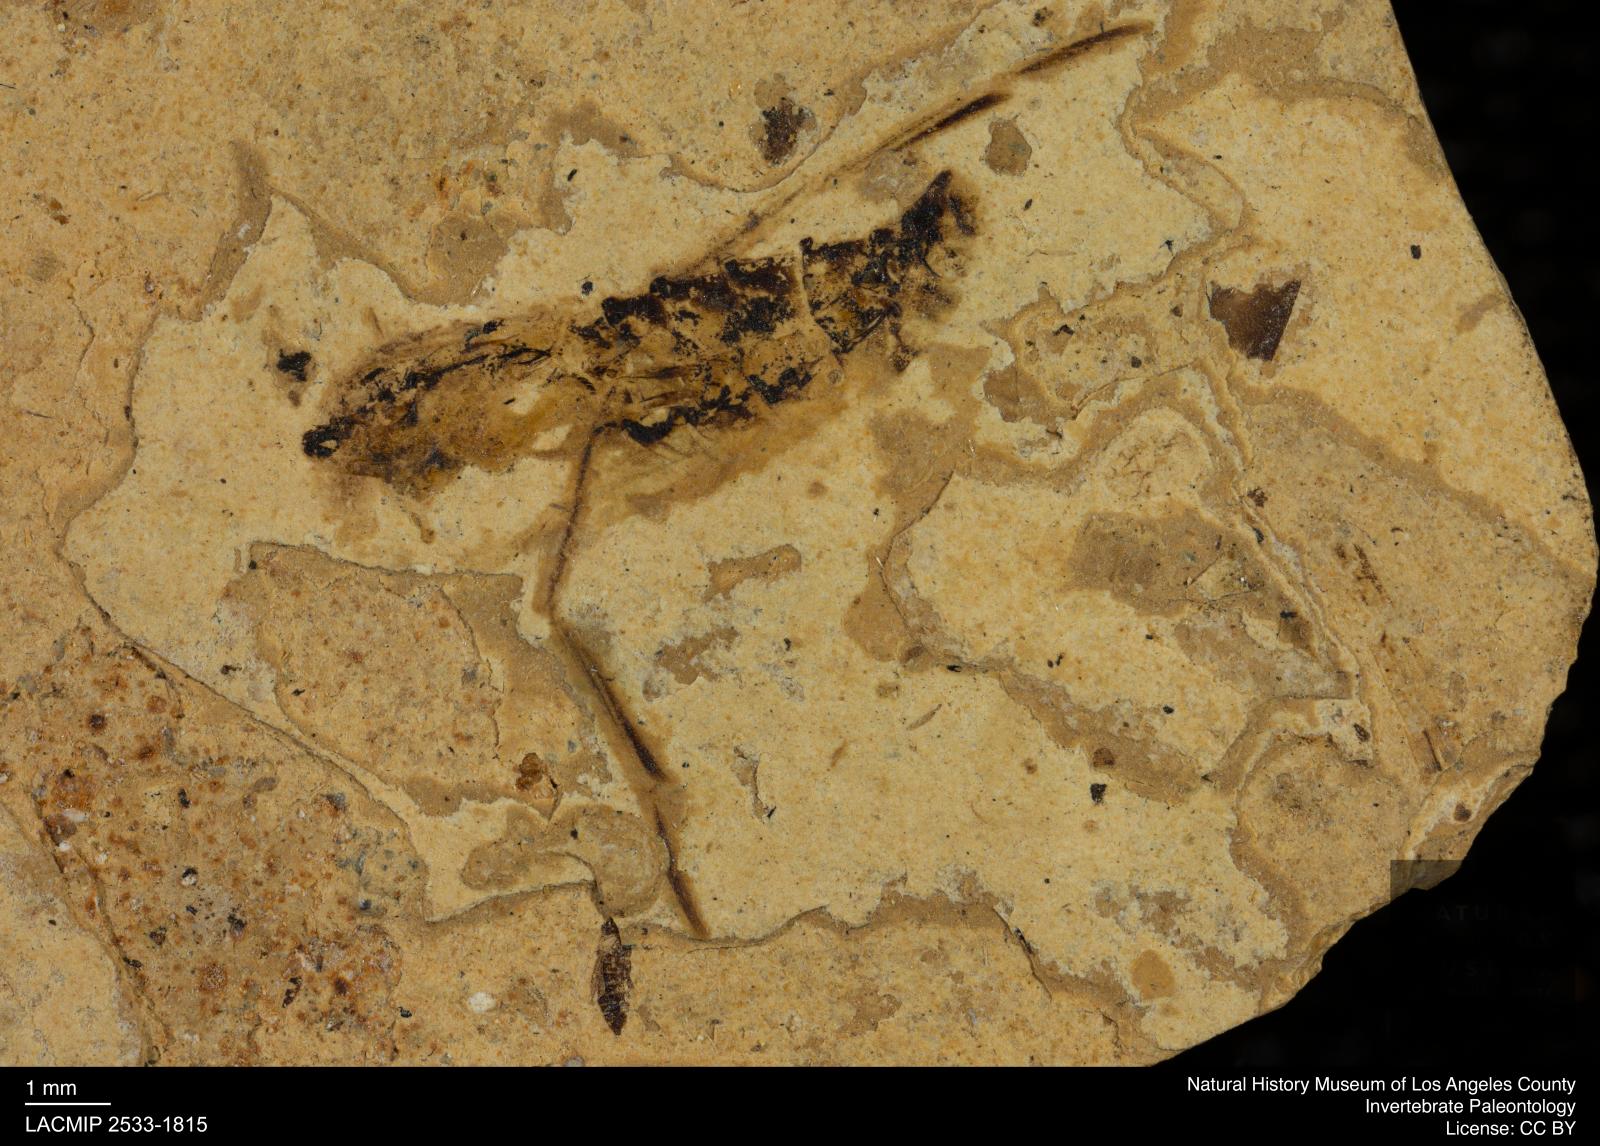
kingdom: Animalia
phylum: Arthropoda
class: Insecta
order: Hemiptera
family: Notonectidae
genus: Notonecta
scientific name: Notonecta
